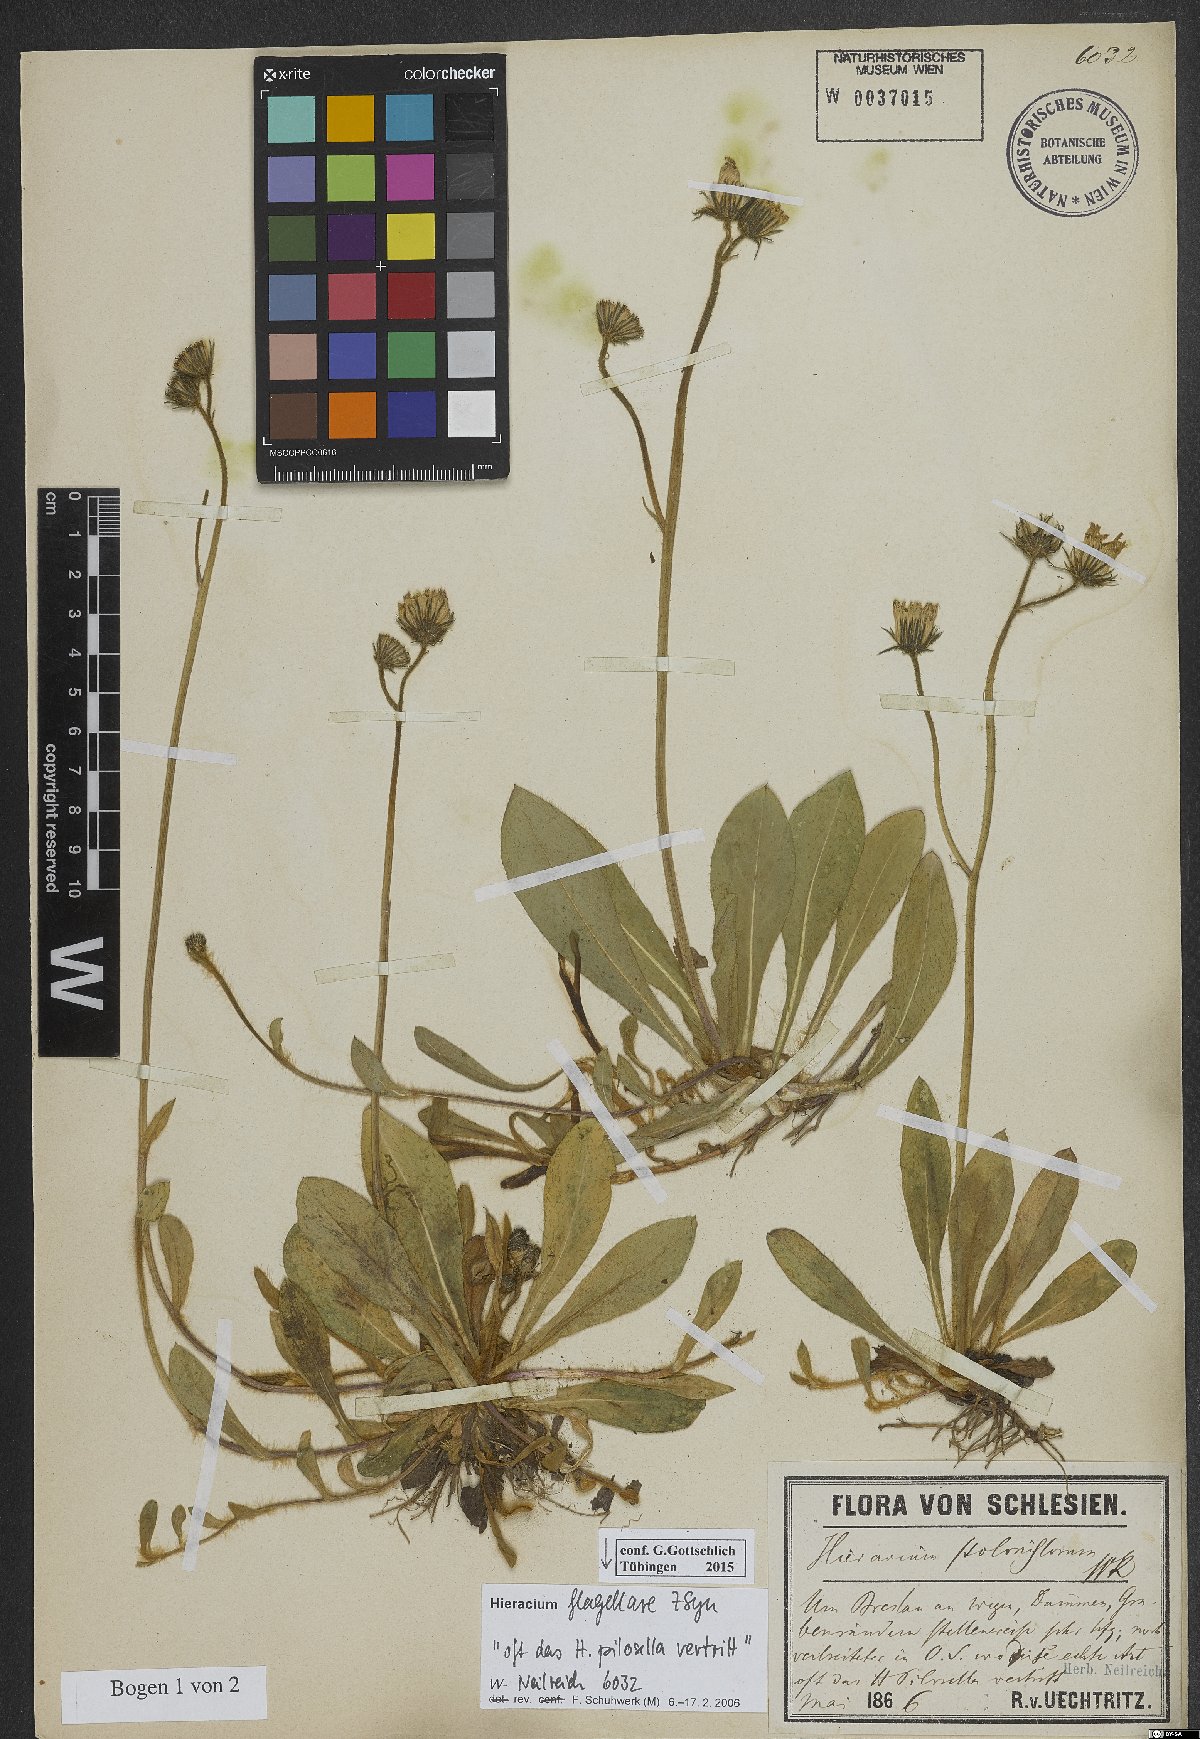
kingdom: Plantae
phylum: Tracheophyta
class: Magnoliopsida
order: Asterales
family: Asteraceae
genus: Pilosella
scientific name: Pilosella
